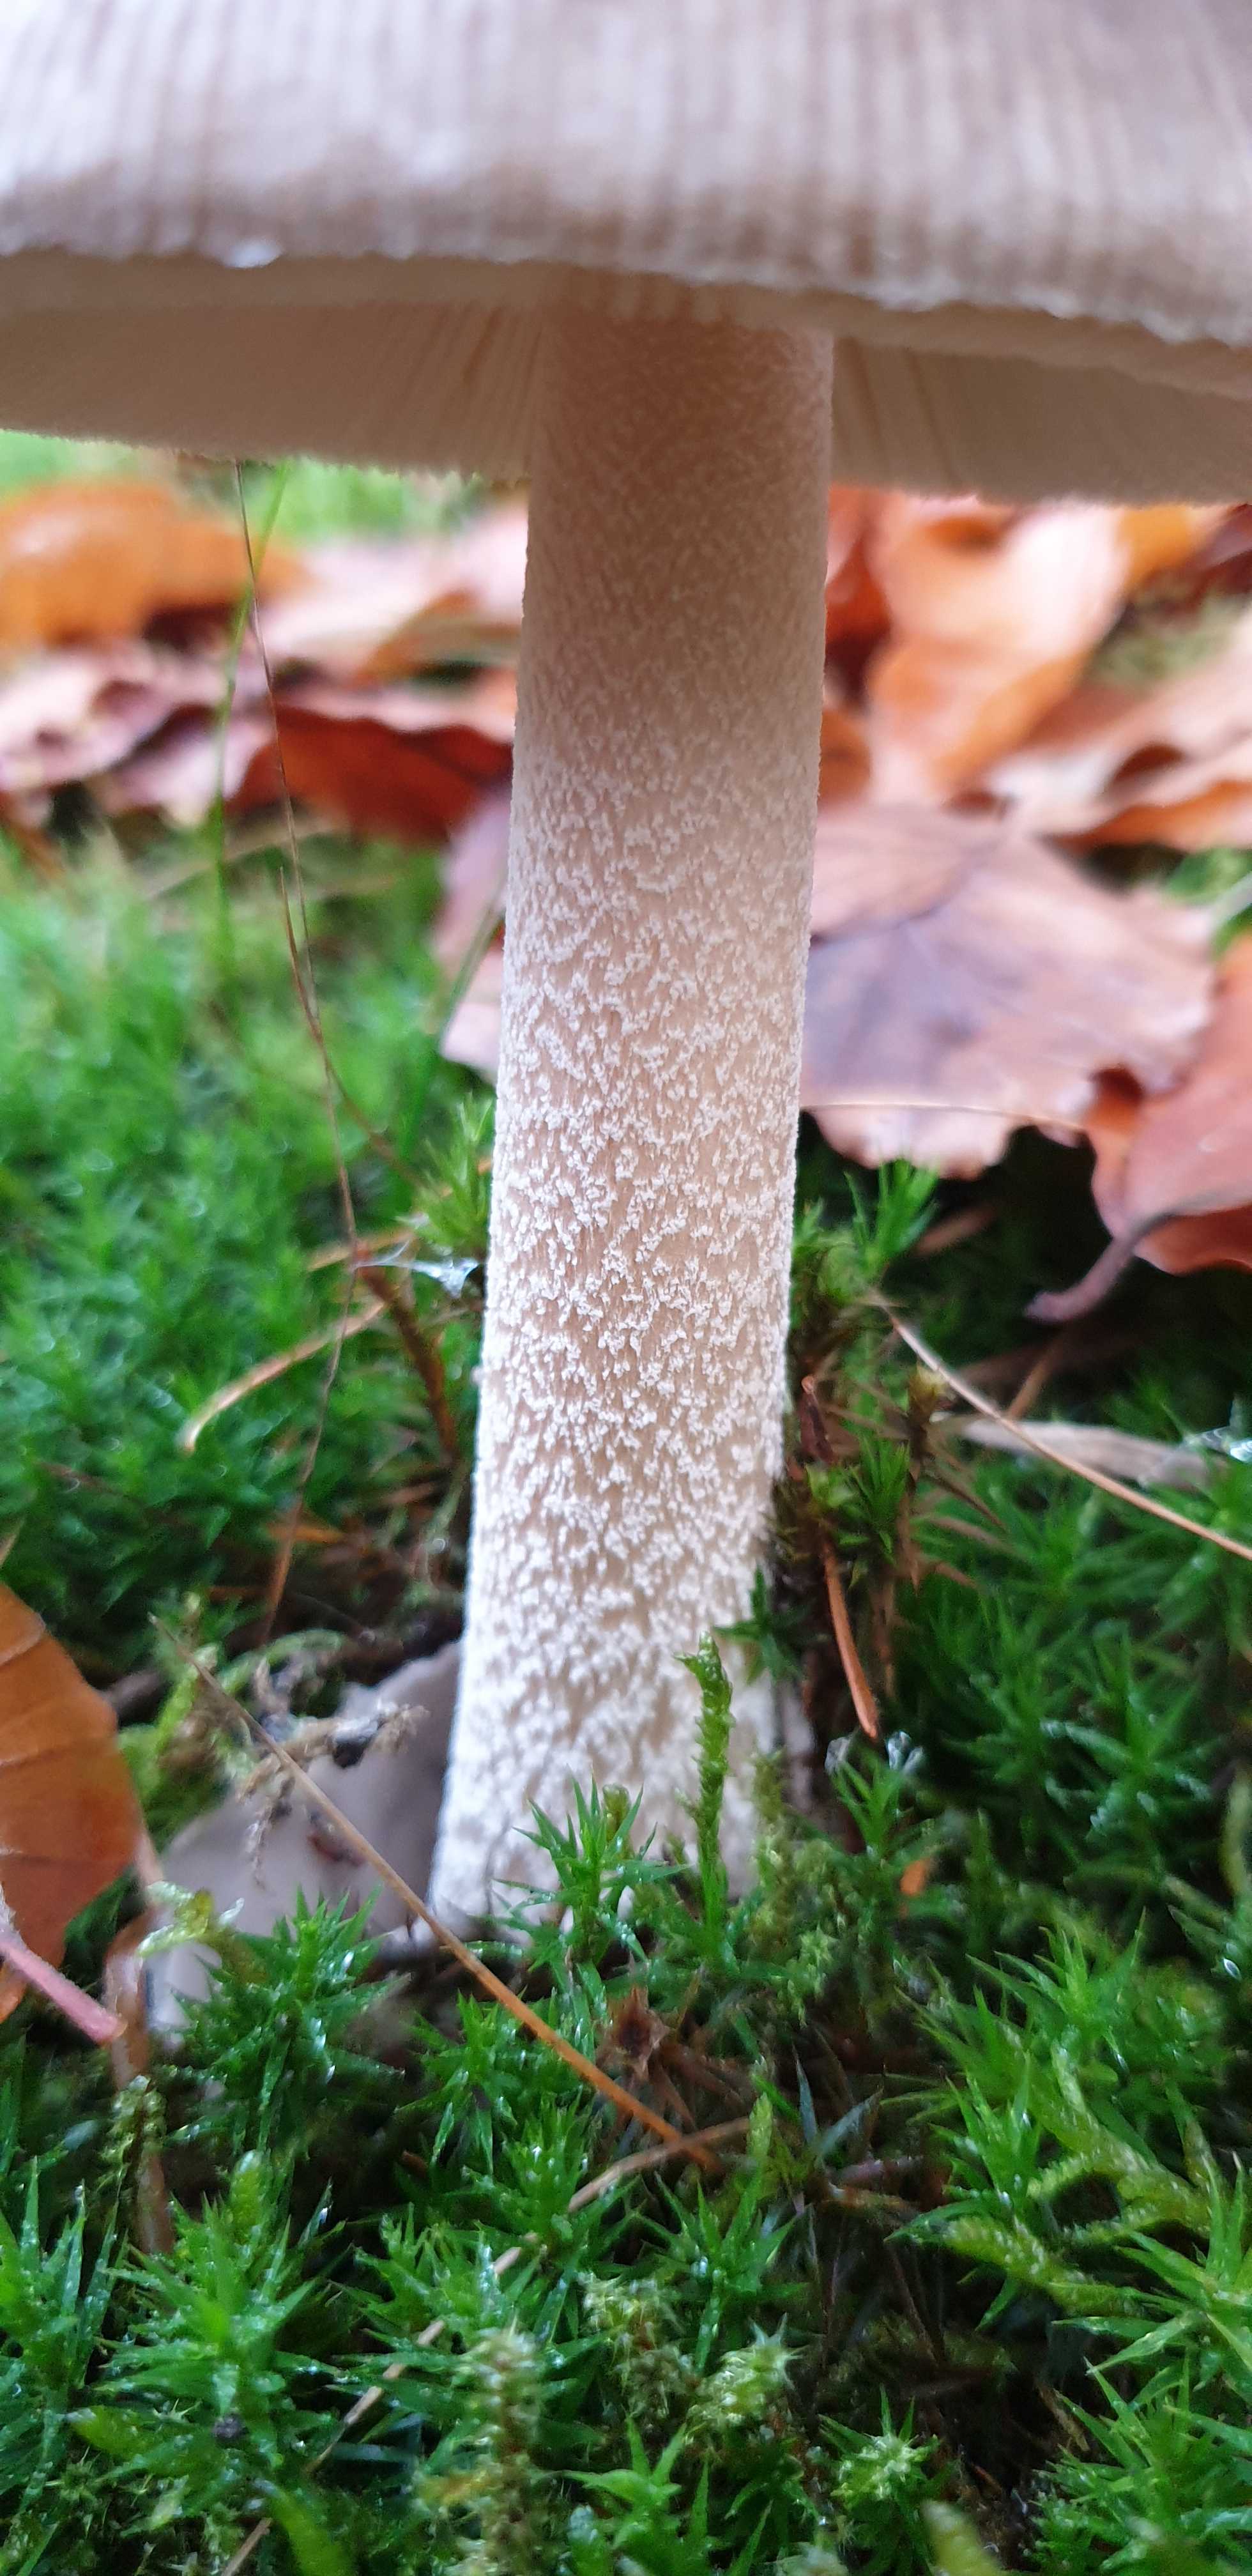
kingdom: Fungi
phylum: Basidiomycota
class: Agaricomycetes
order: Agaricales
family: Amanitaceae
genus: Amanita
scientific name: Amanita submembranacea
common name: gråspættet kam-fluesvamp
